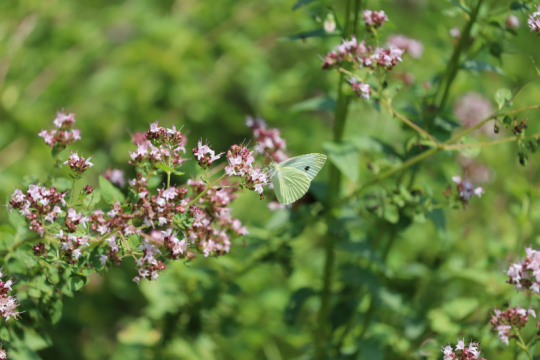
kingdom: Animalia
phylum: Arthropoda
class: Insecta
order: Lepidoptera
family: Pieridae
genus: Pieris
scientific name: Pieris rapae
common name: Cabbage White
